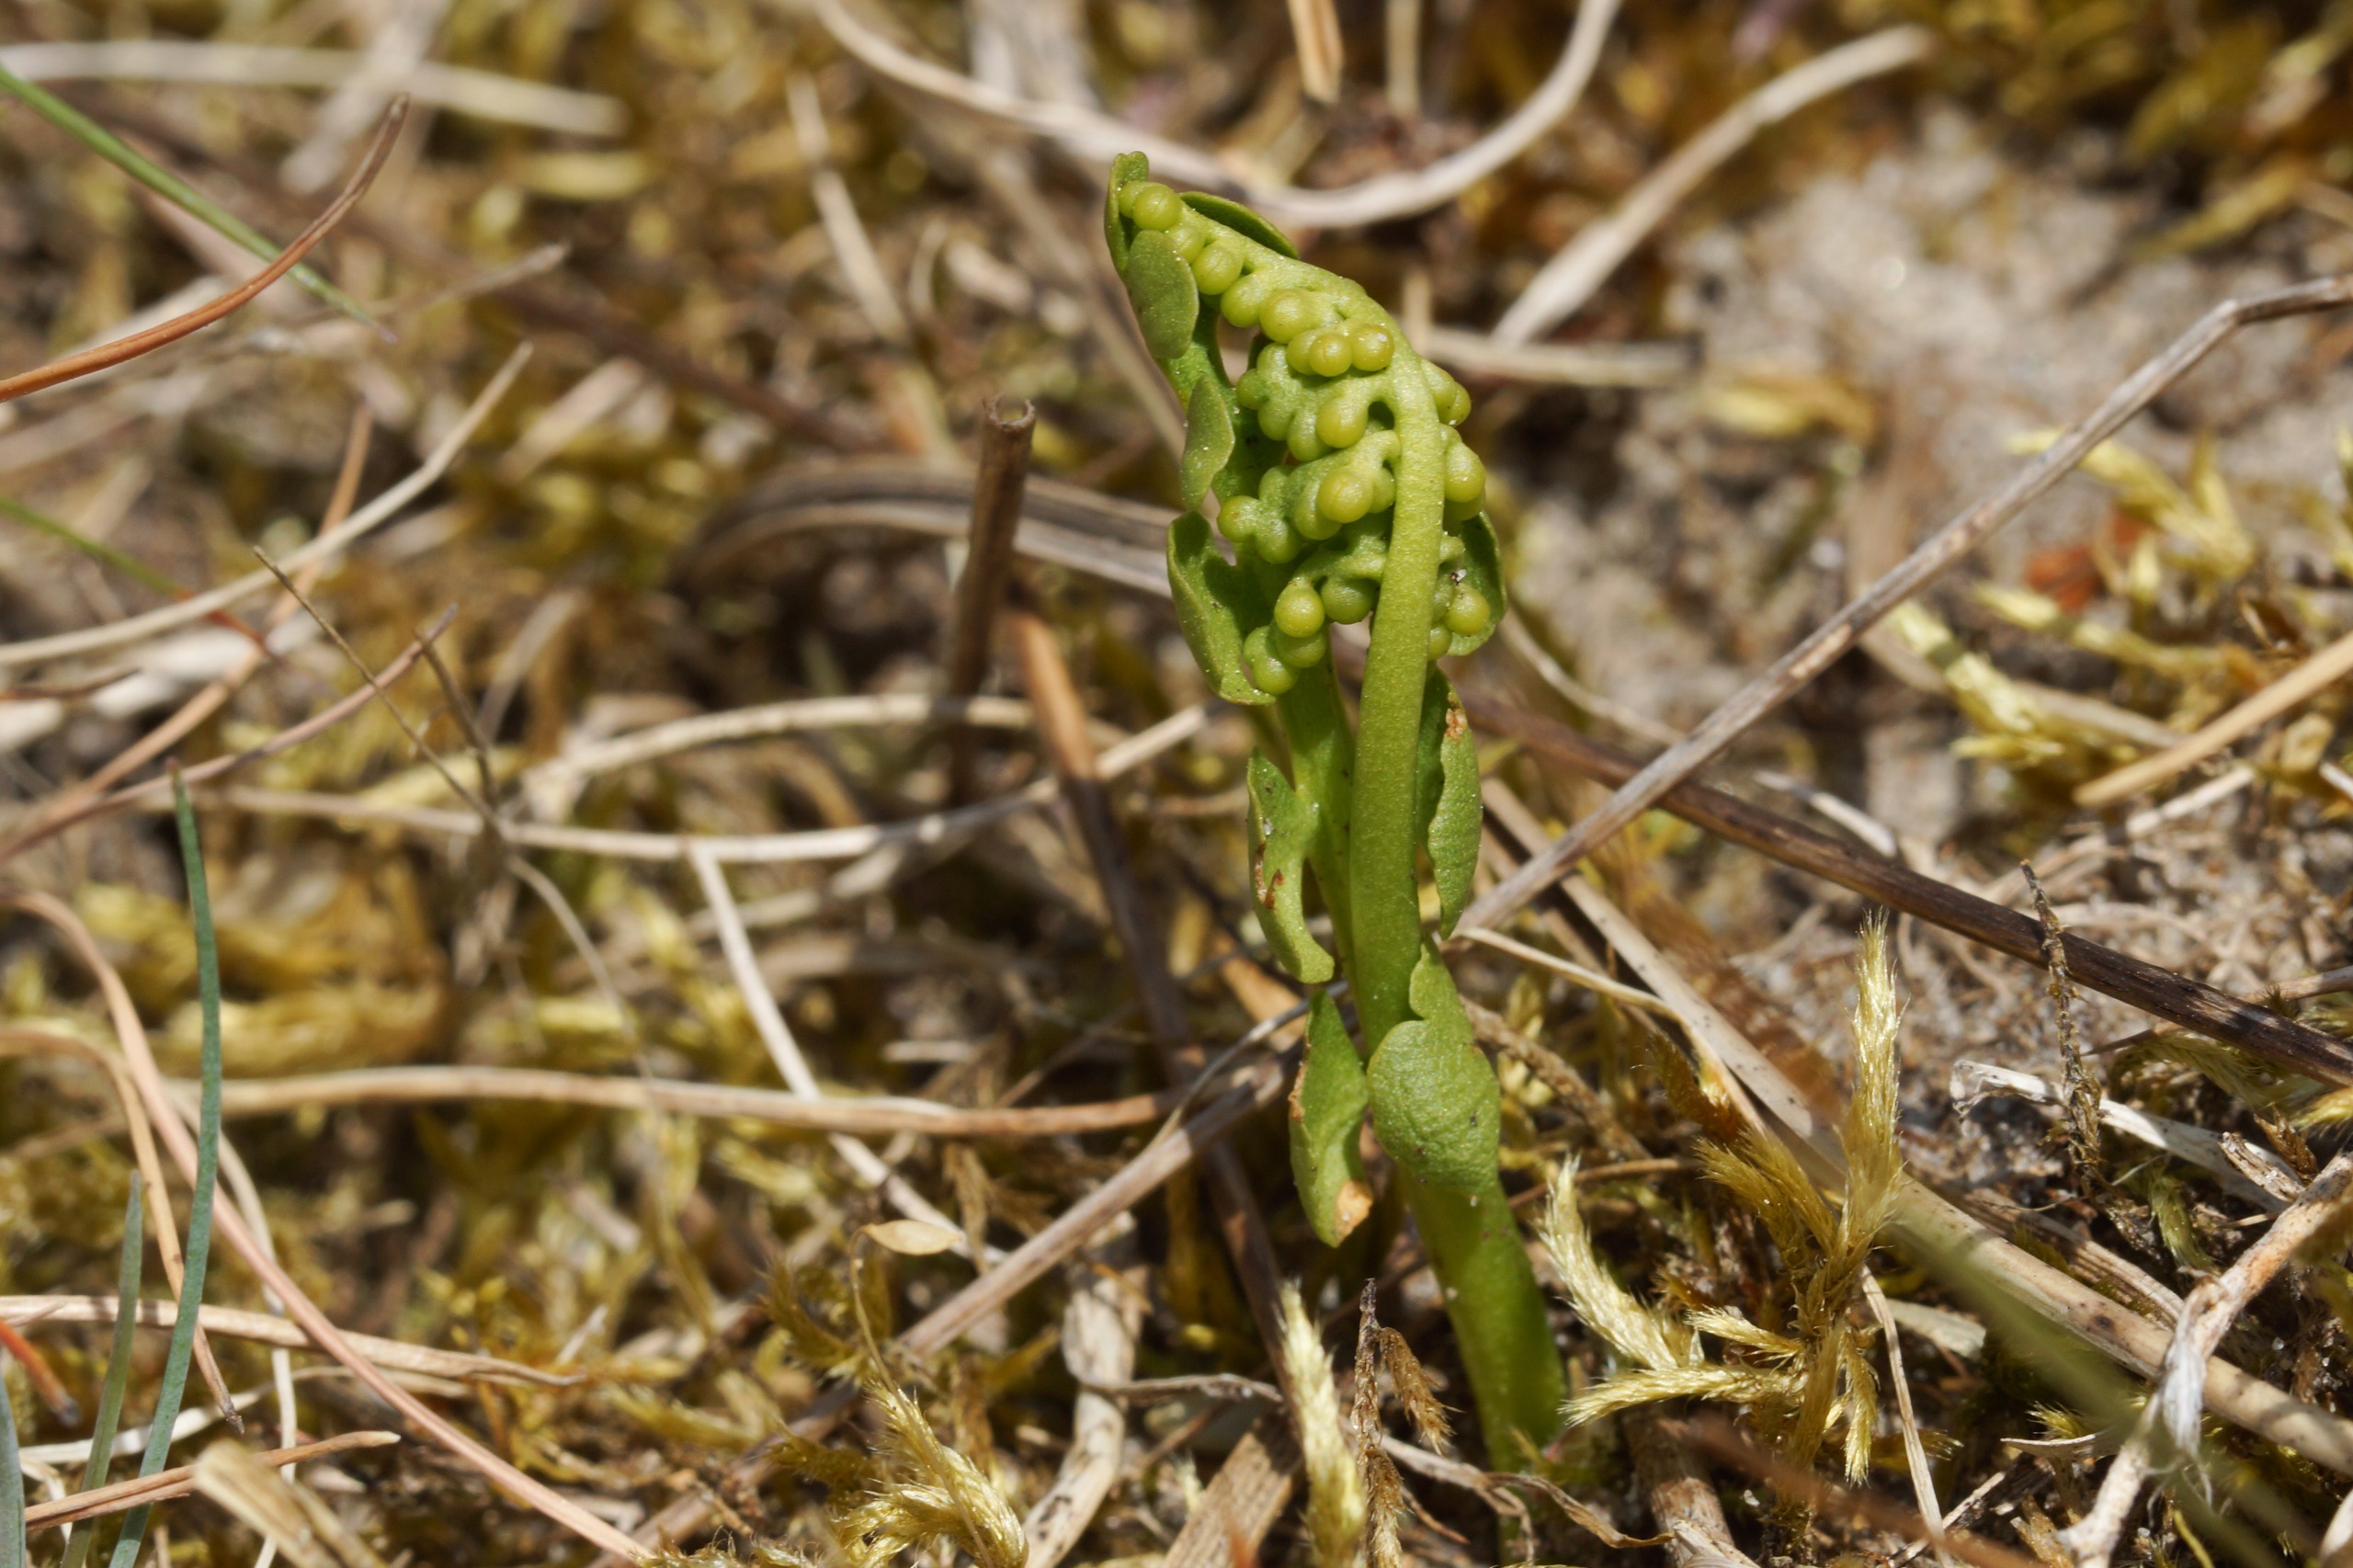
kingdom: Plantae
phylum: Tracheophyta
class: Polypodiopsida
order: Ophioglossales
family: Ophioglossaceae
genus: Botrychium
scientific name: Botrychium lunaria
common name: Almindelig månerude
